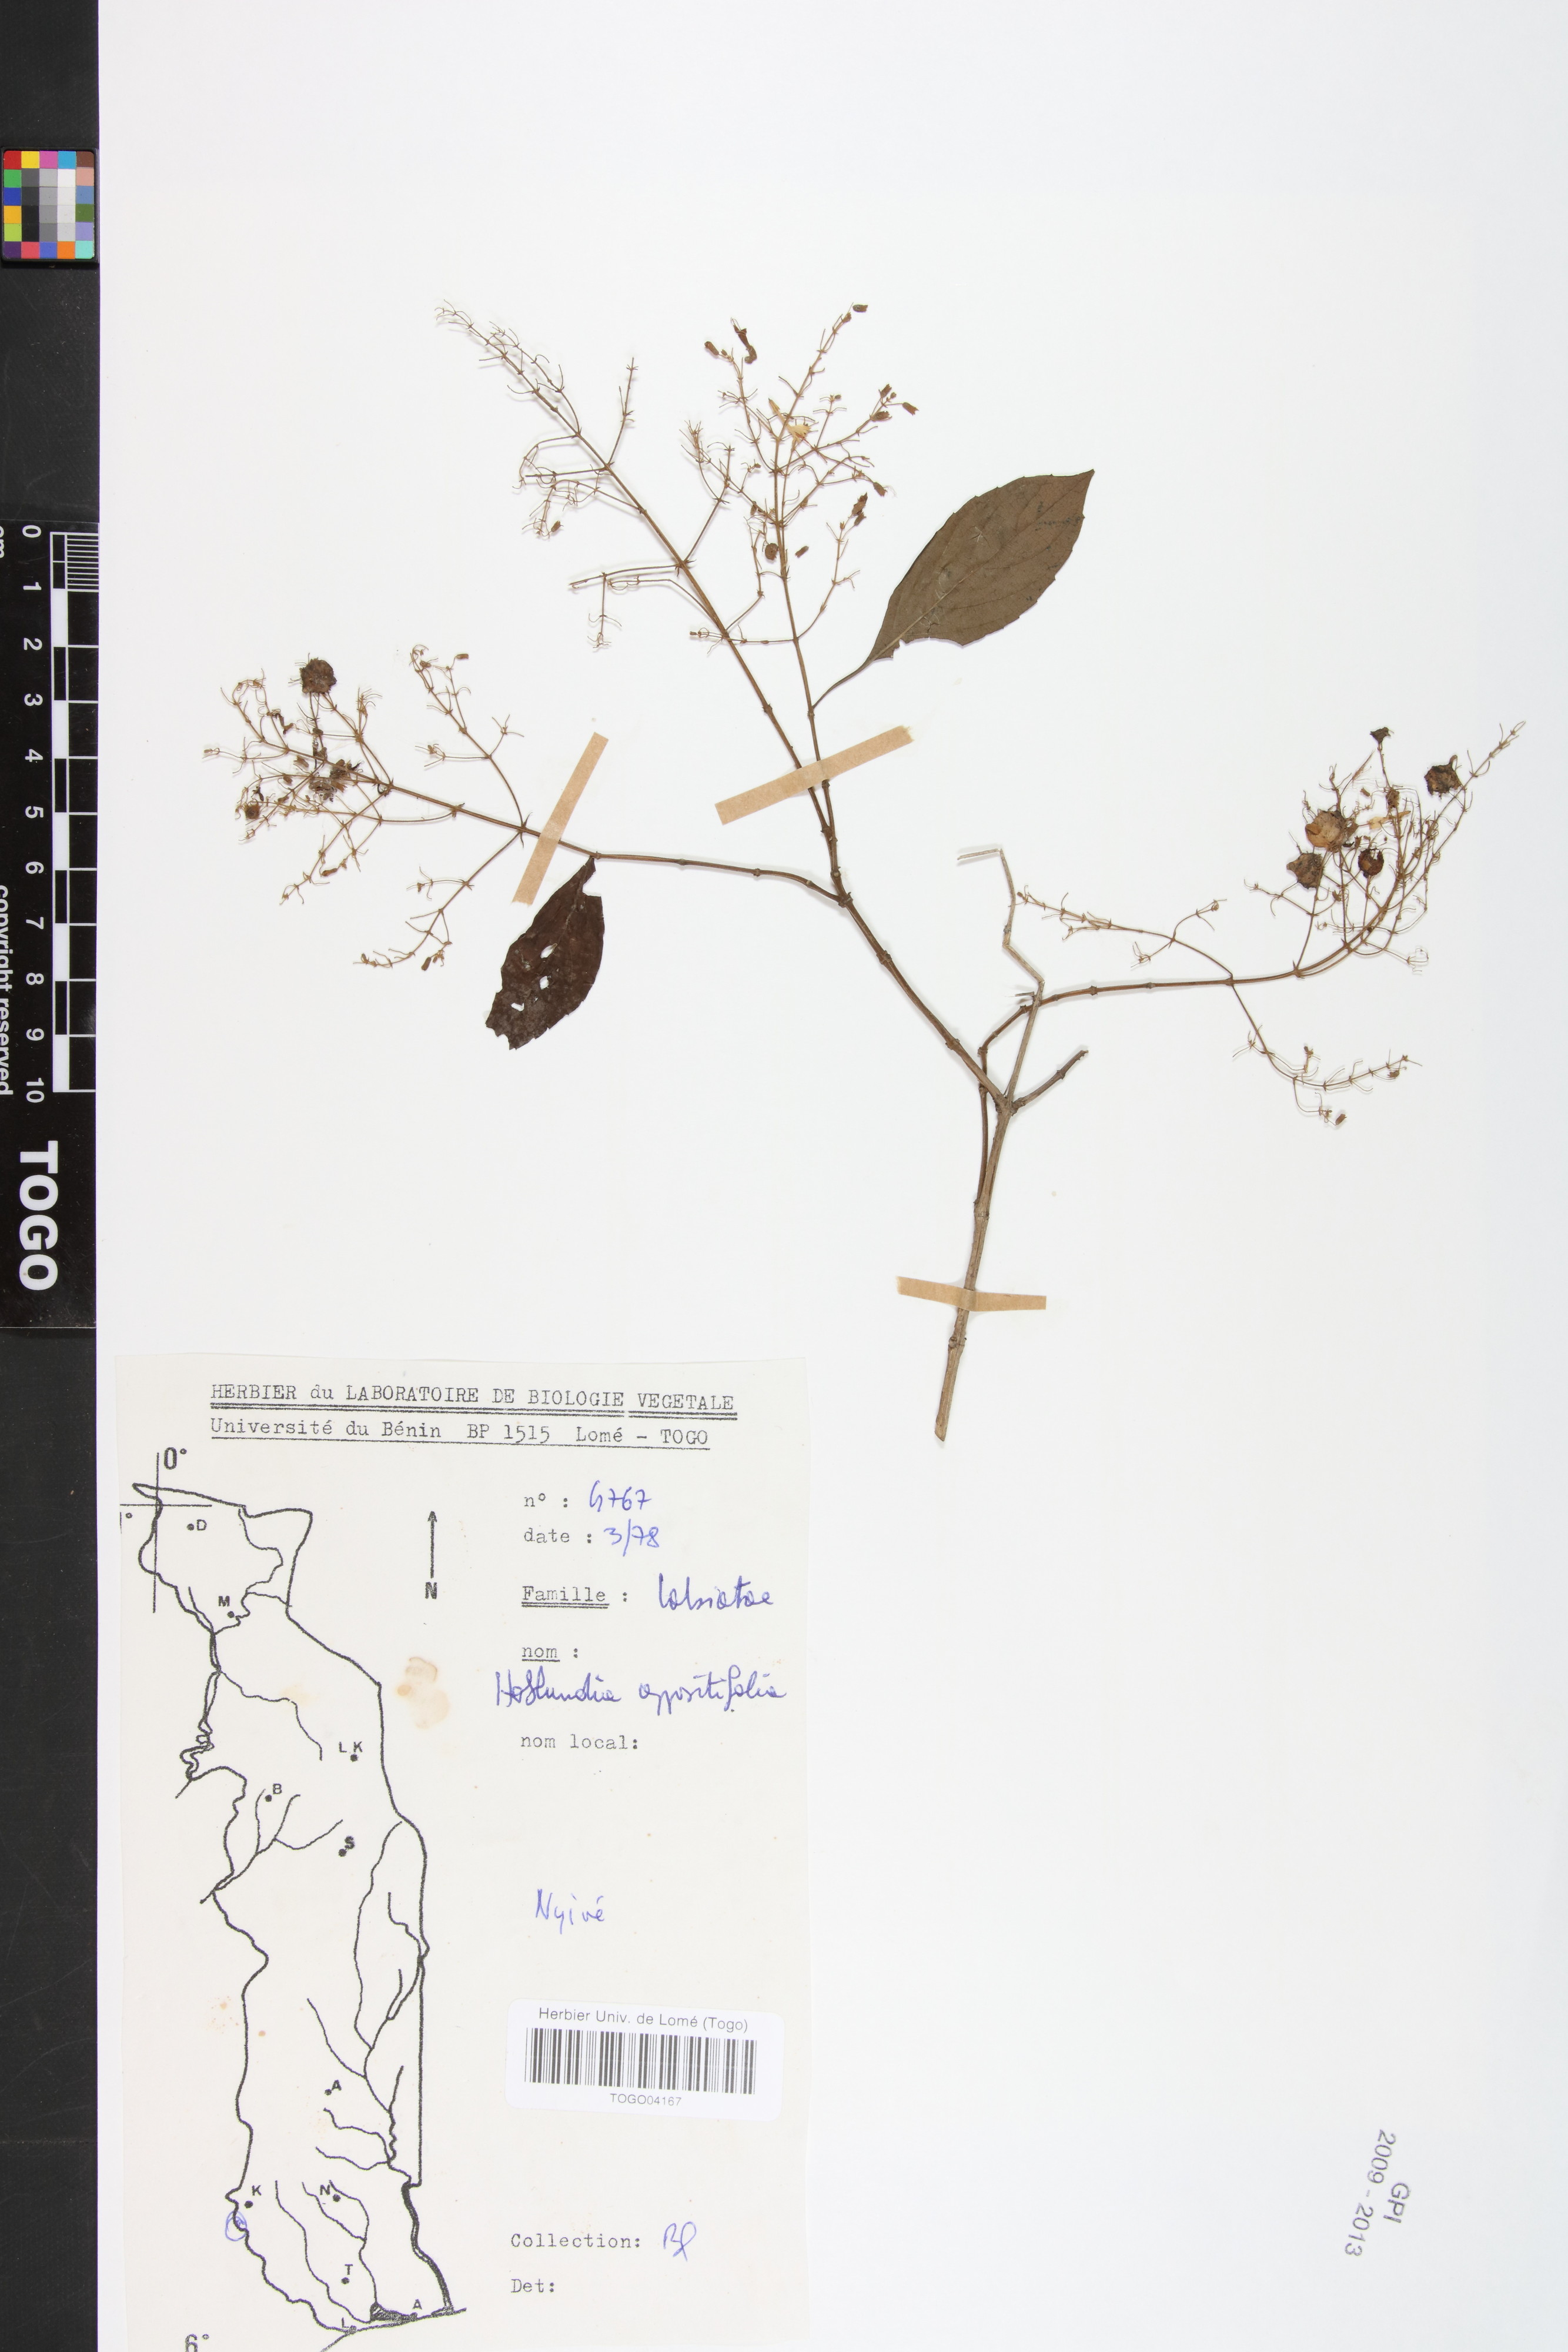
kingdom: Plantae
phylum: Tracheophyta
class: Magnoliopsida
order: Lamiales
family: Lamiaceae
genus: Hoslundia
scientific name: Hoslundia opposita
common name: Kamyuye
